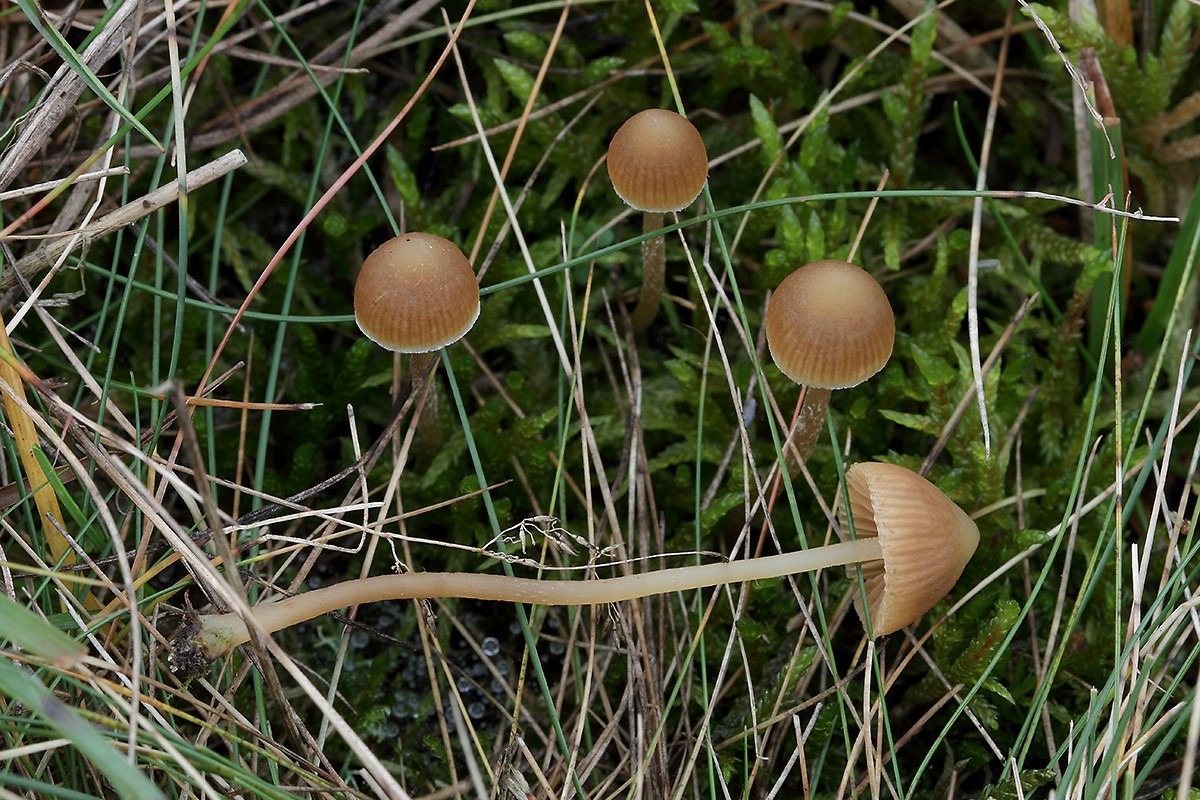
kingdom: Fungi
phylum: Basidiomycota
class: Agaricomycetes
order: Agaricales
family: Hymenogastraceae
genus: Galerina
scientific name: Galerina mniophila
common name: olivengul hjelmhat
